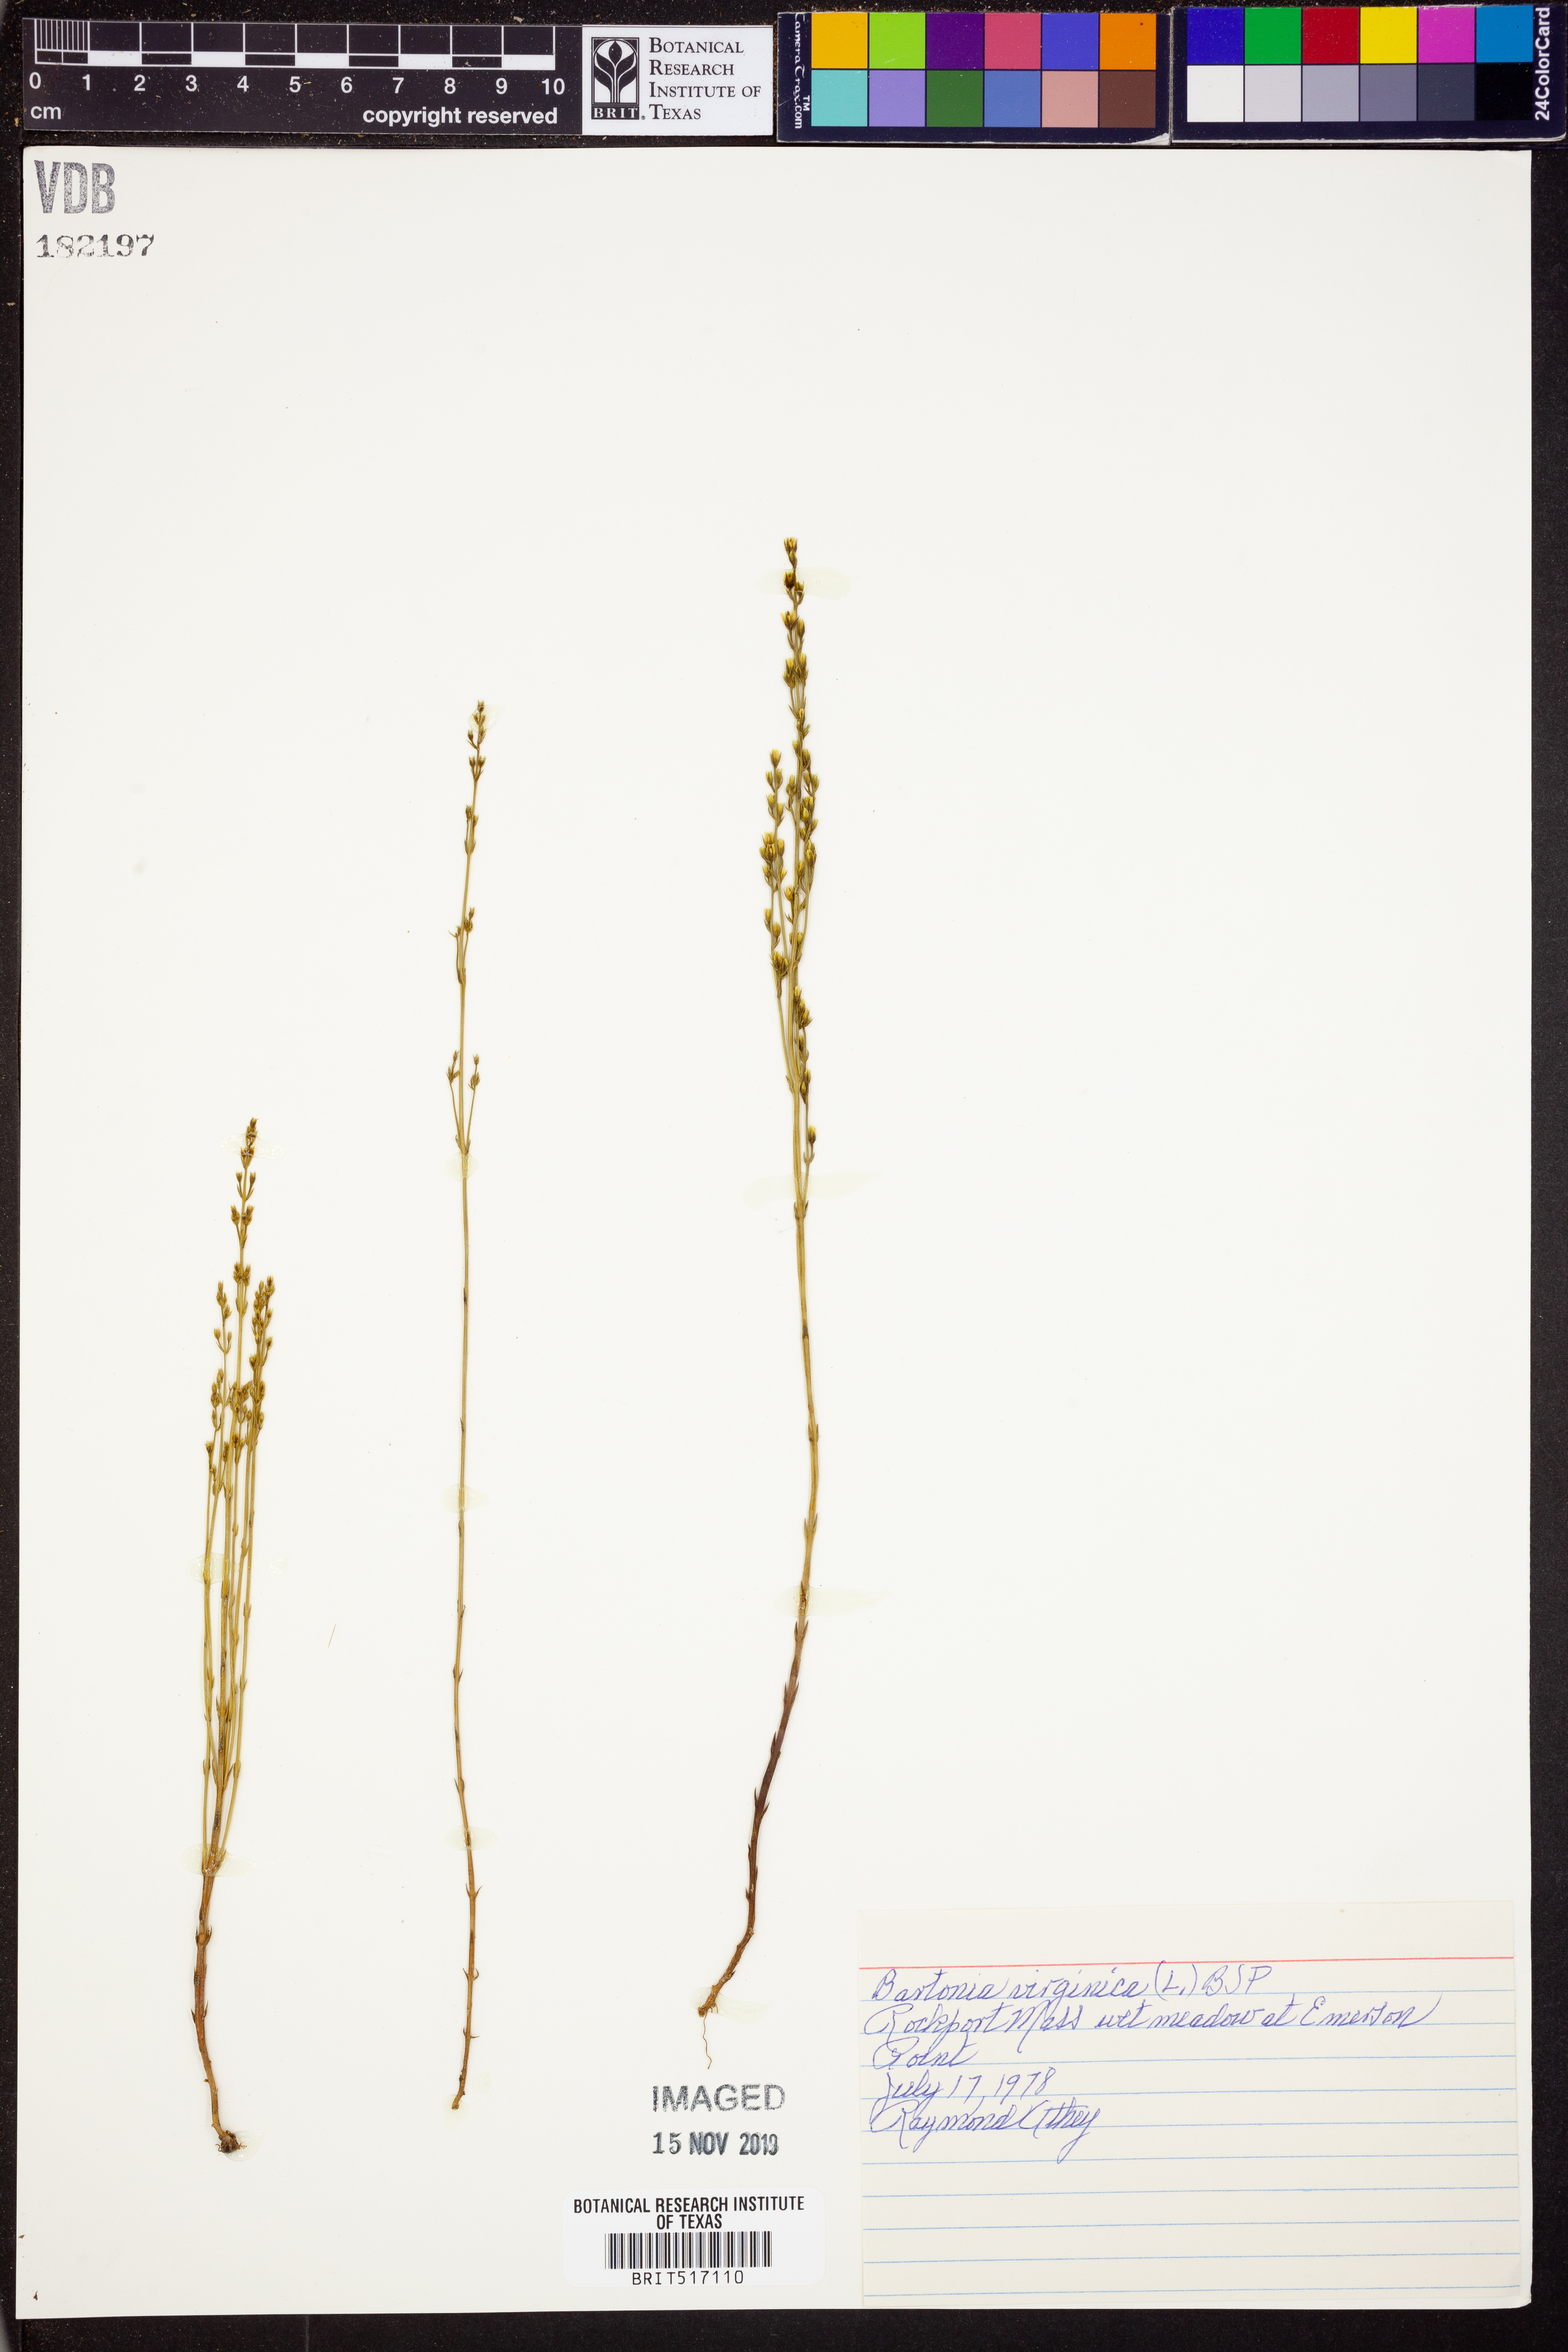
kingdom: Plantae
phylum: Tracheophyta
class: Magnoliopsida
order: Gentianales
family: Gentianaceae
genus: Bartonia
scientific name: Bartonia virginica
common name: Yellow bartonia
